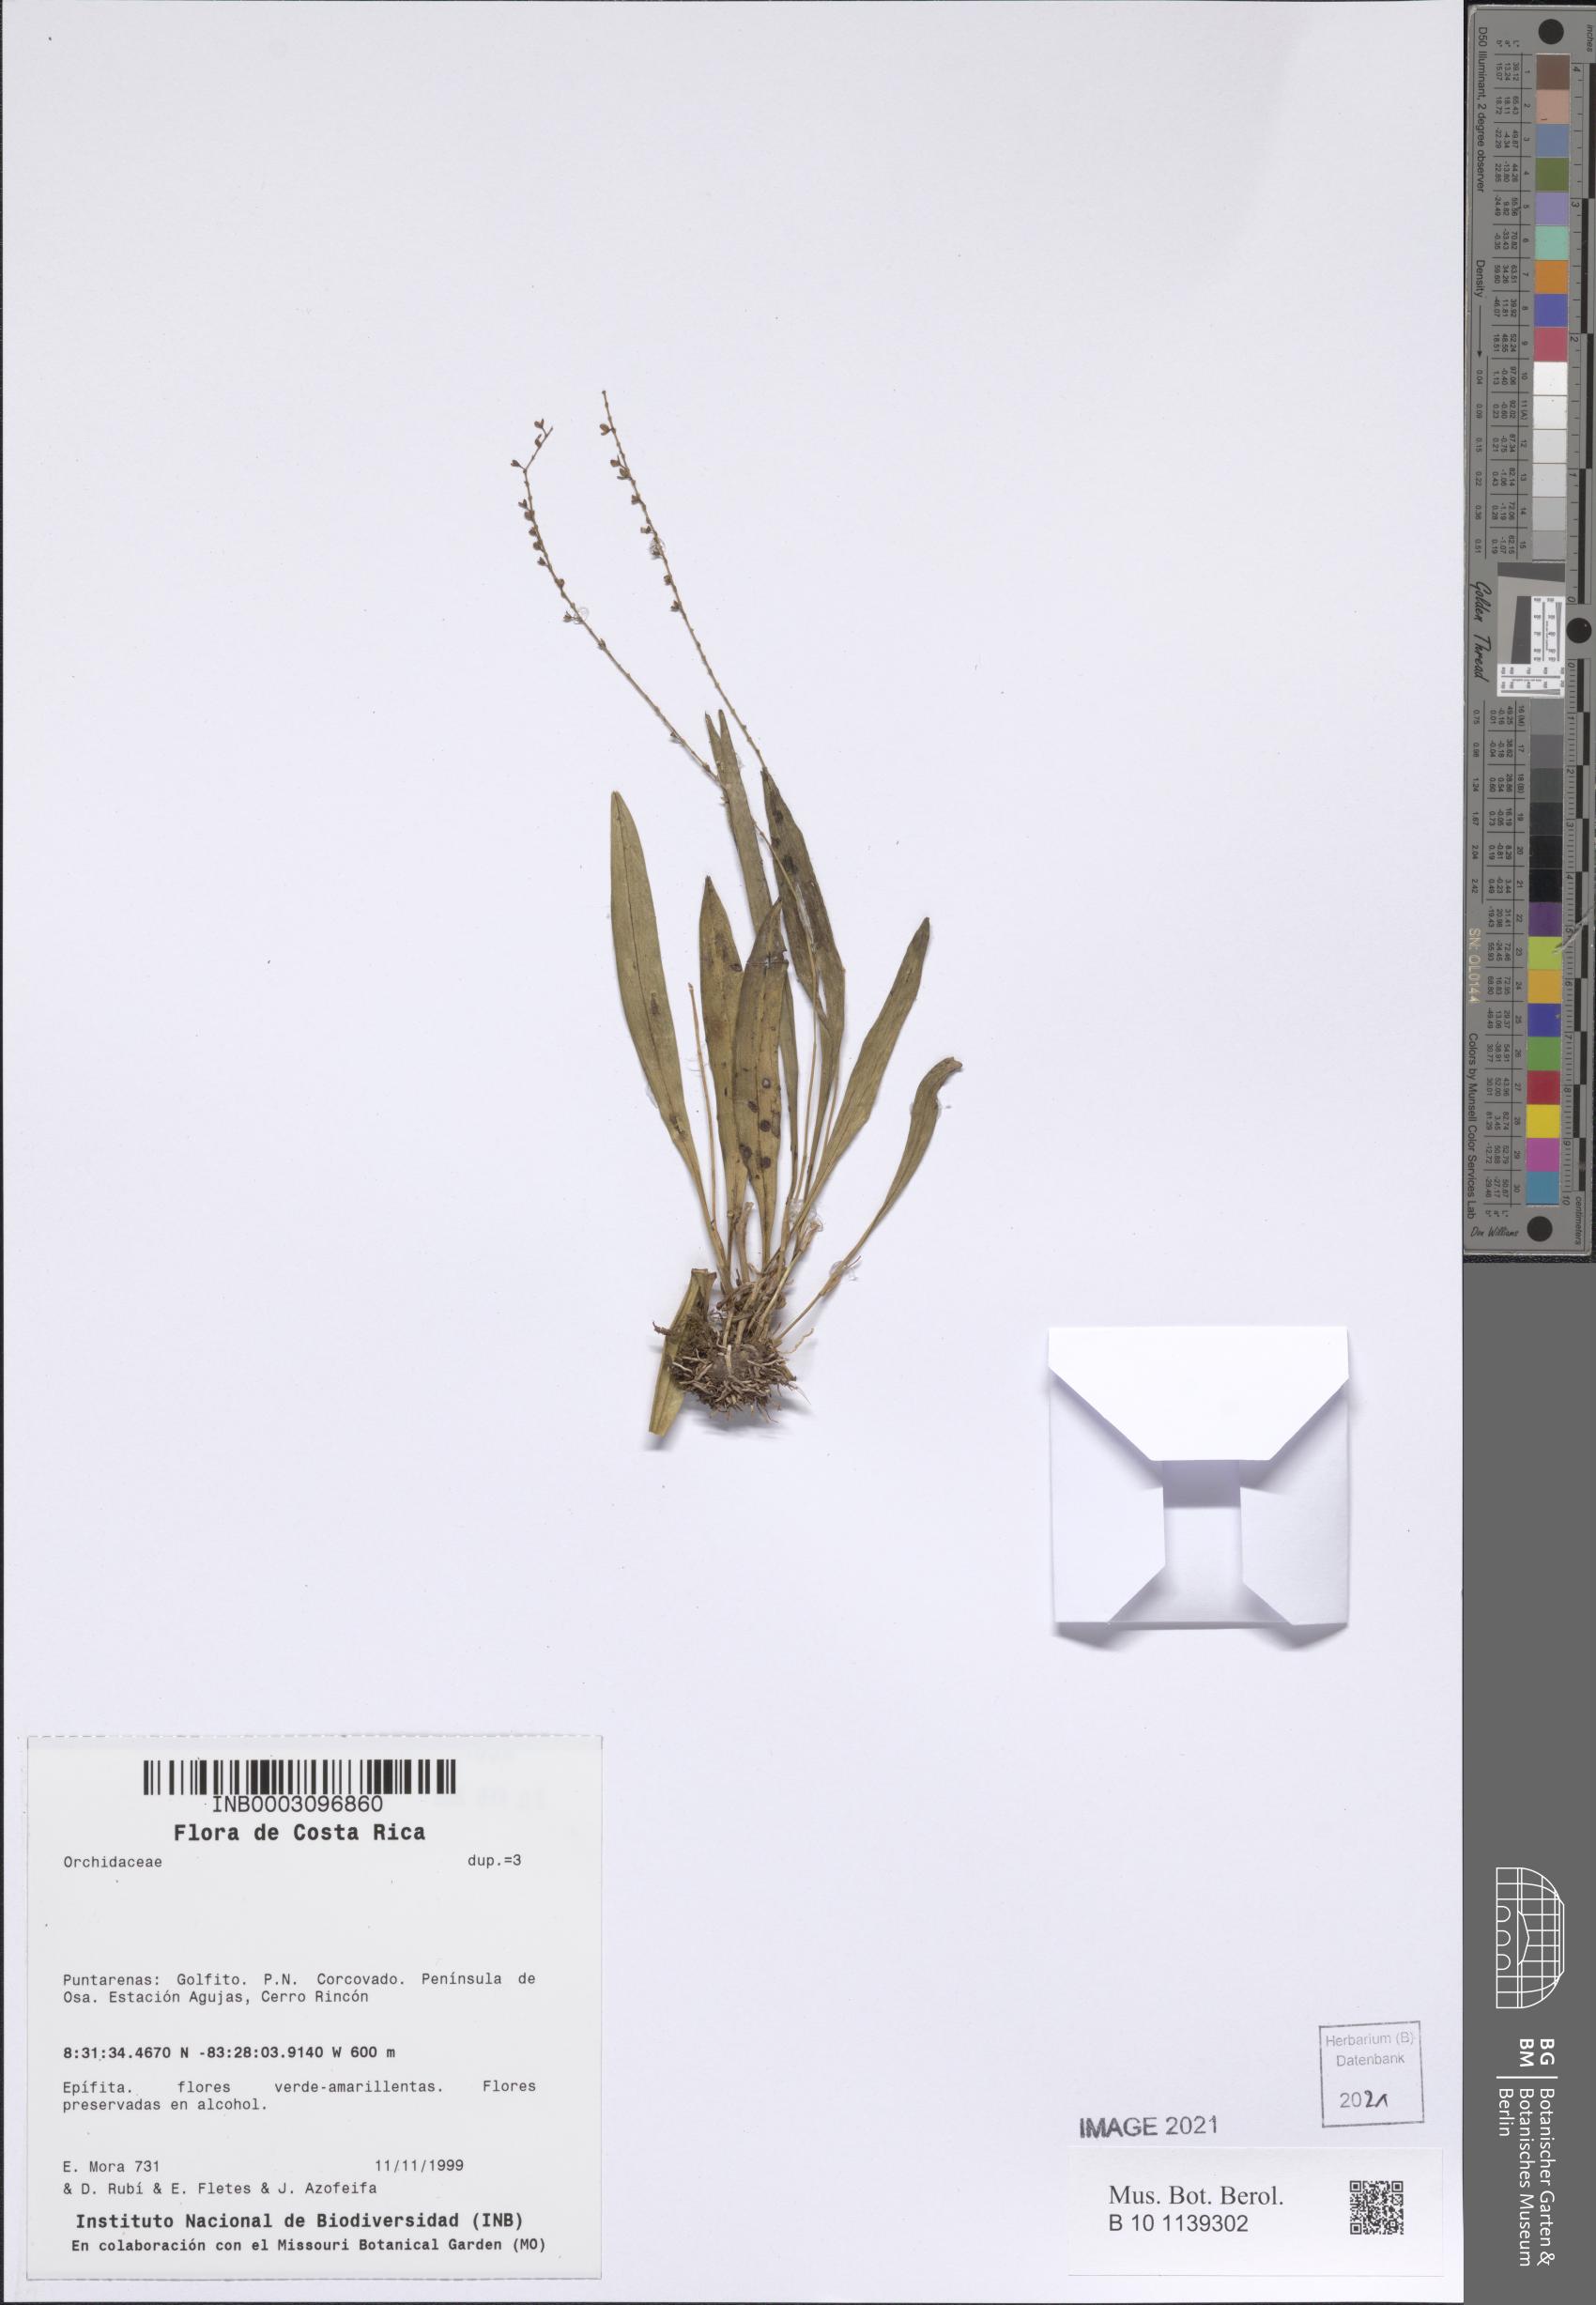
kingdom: Plantae
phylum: Tracheophyta
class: Liliopsida
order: Asparagales
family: Orchidaceae
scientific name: Orchidaceae
